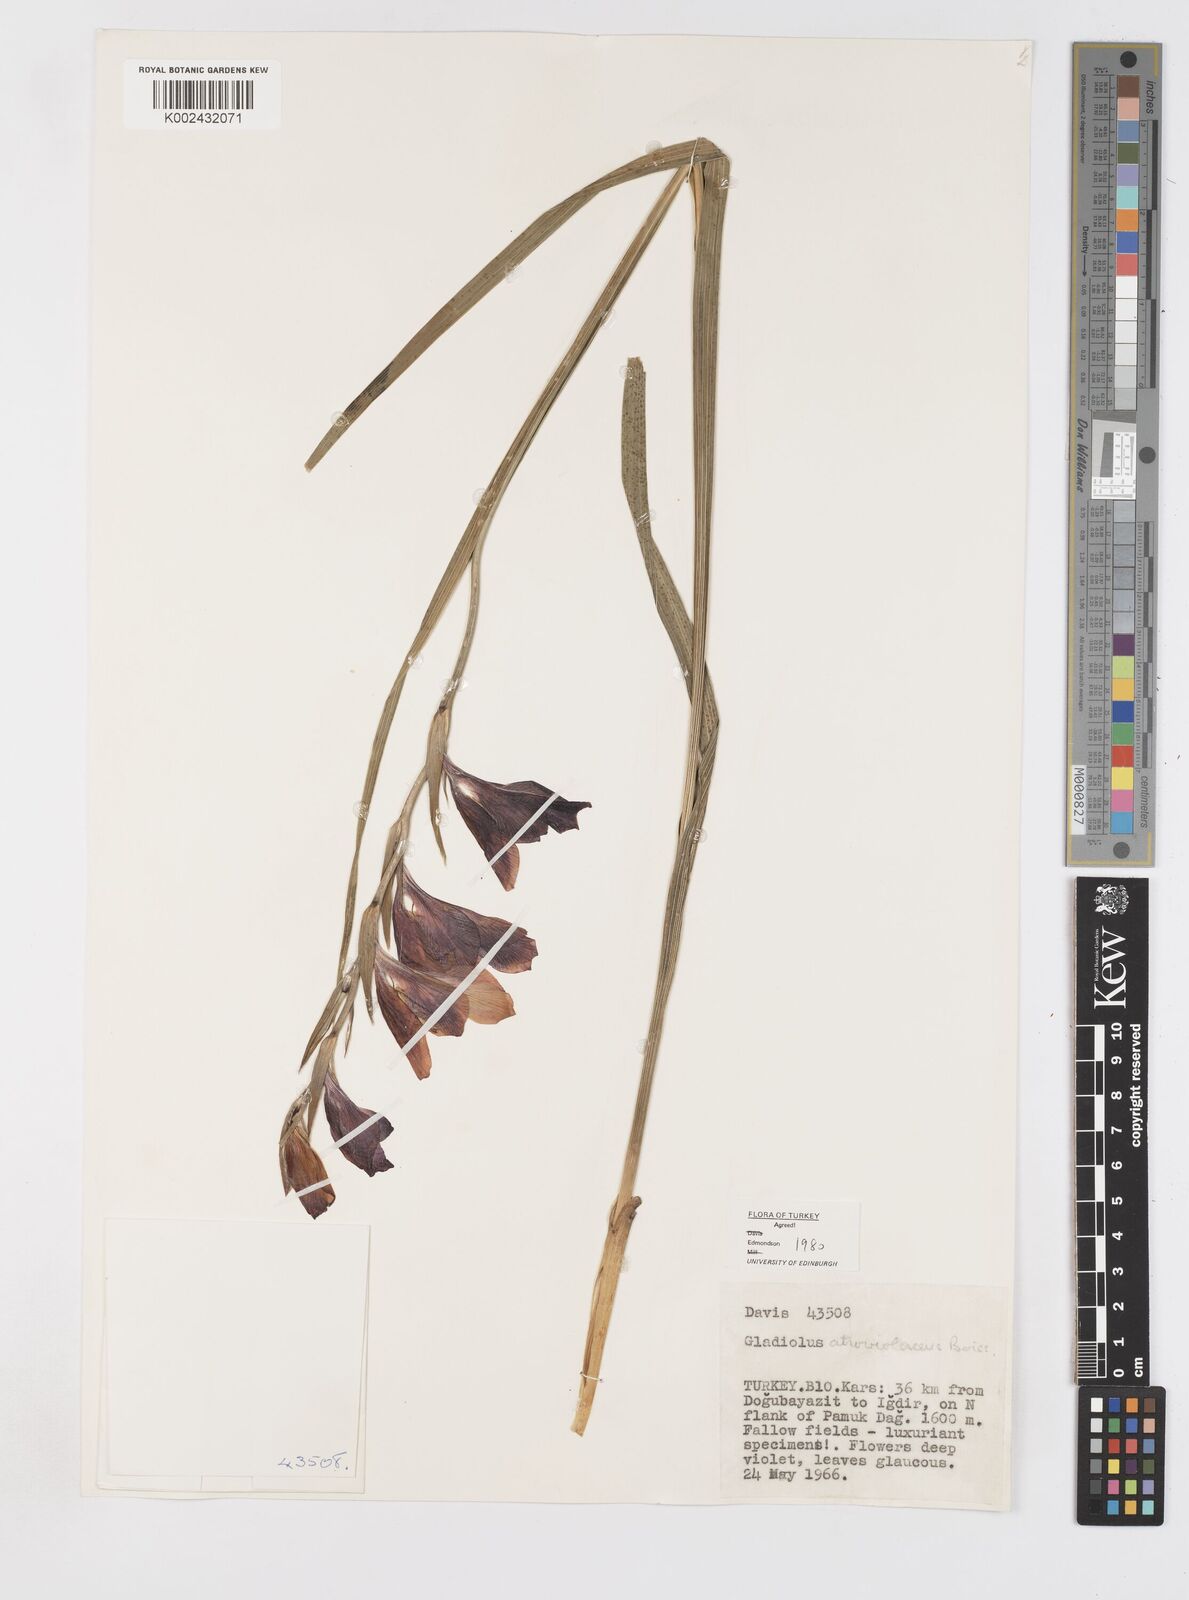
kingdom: Plantae
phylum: Tracheophyta
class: Liliopsida
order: Asparagales
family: Iridaceae
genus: Gladiolus
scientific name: Gladiolus atroviolaceus
